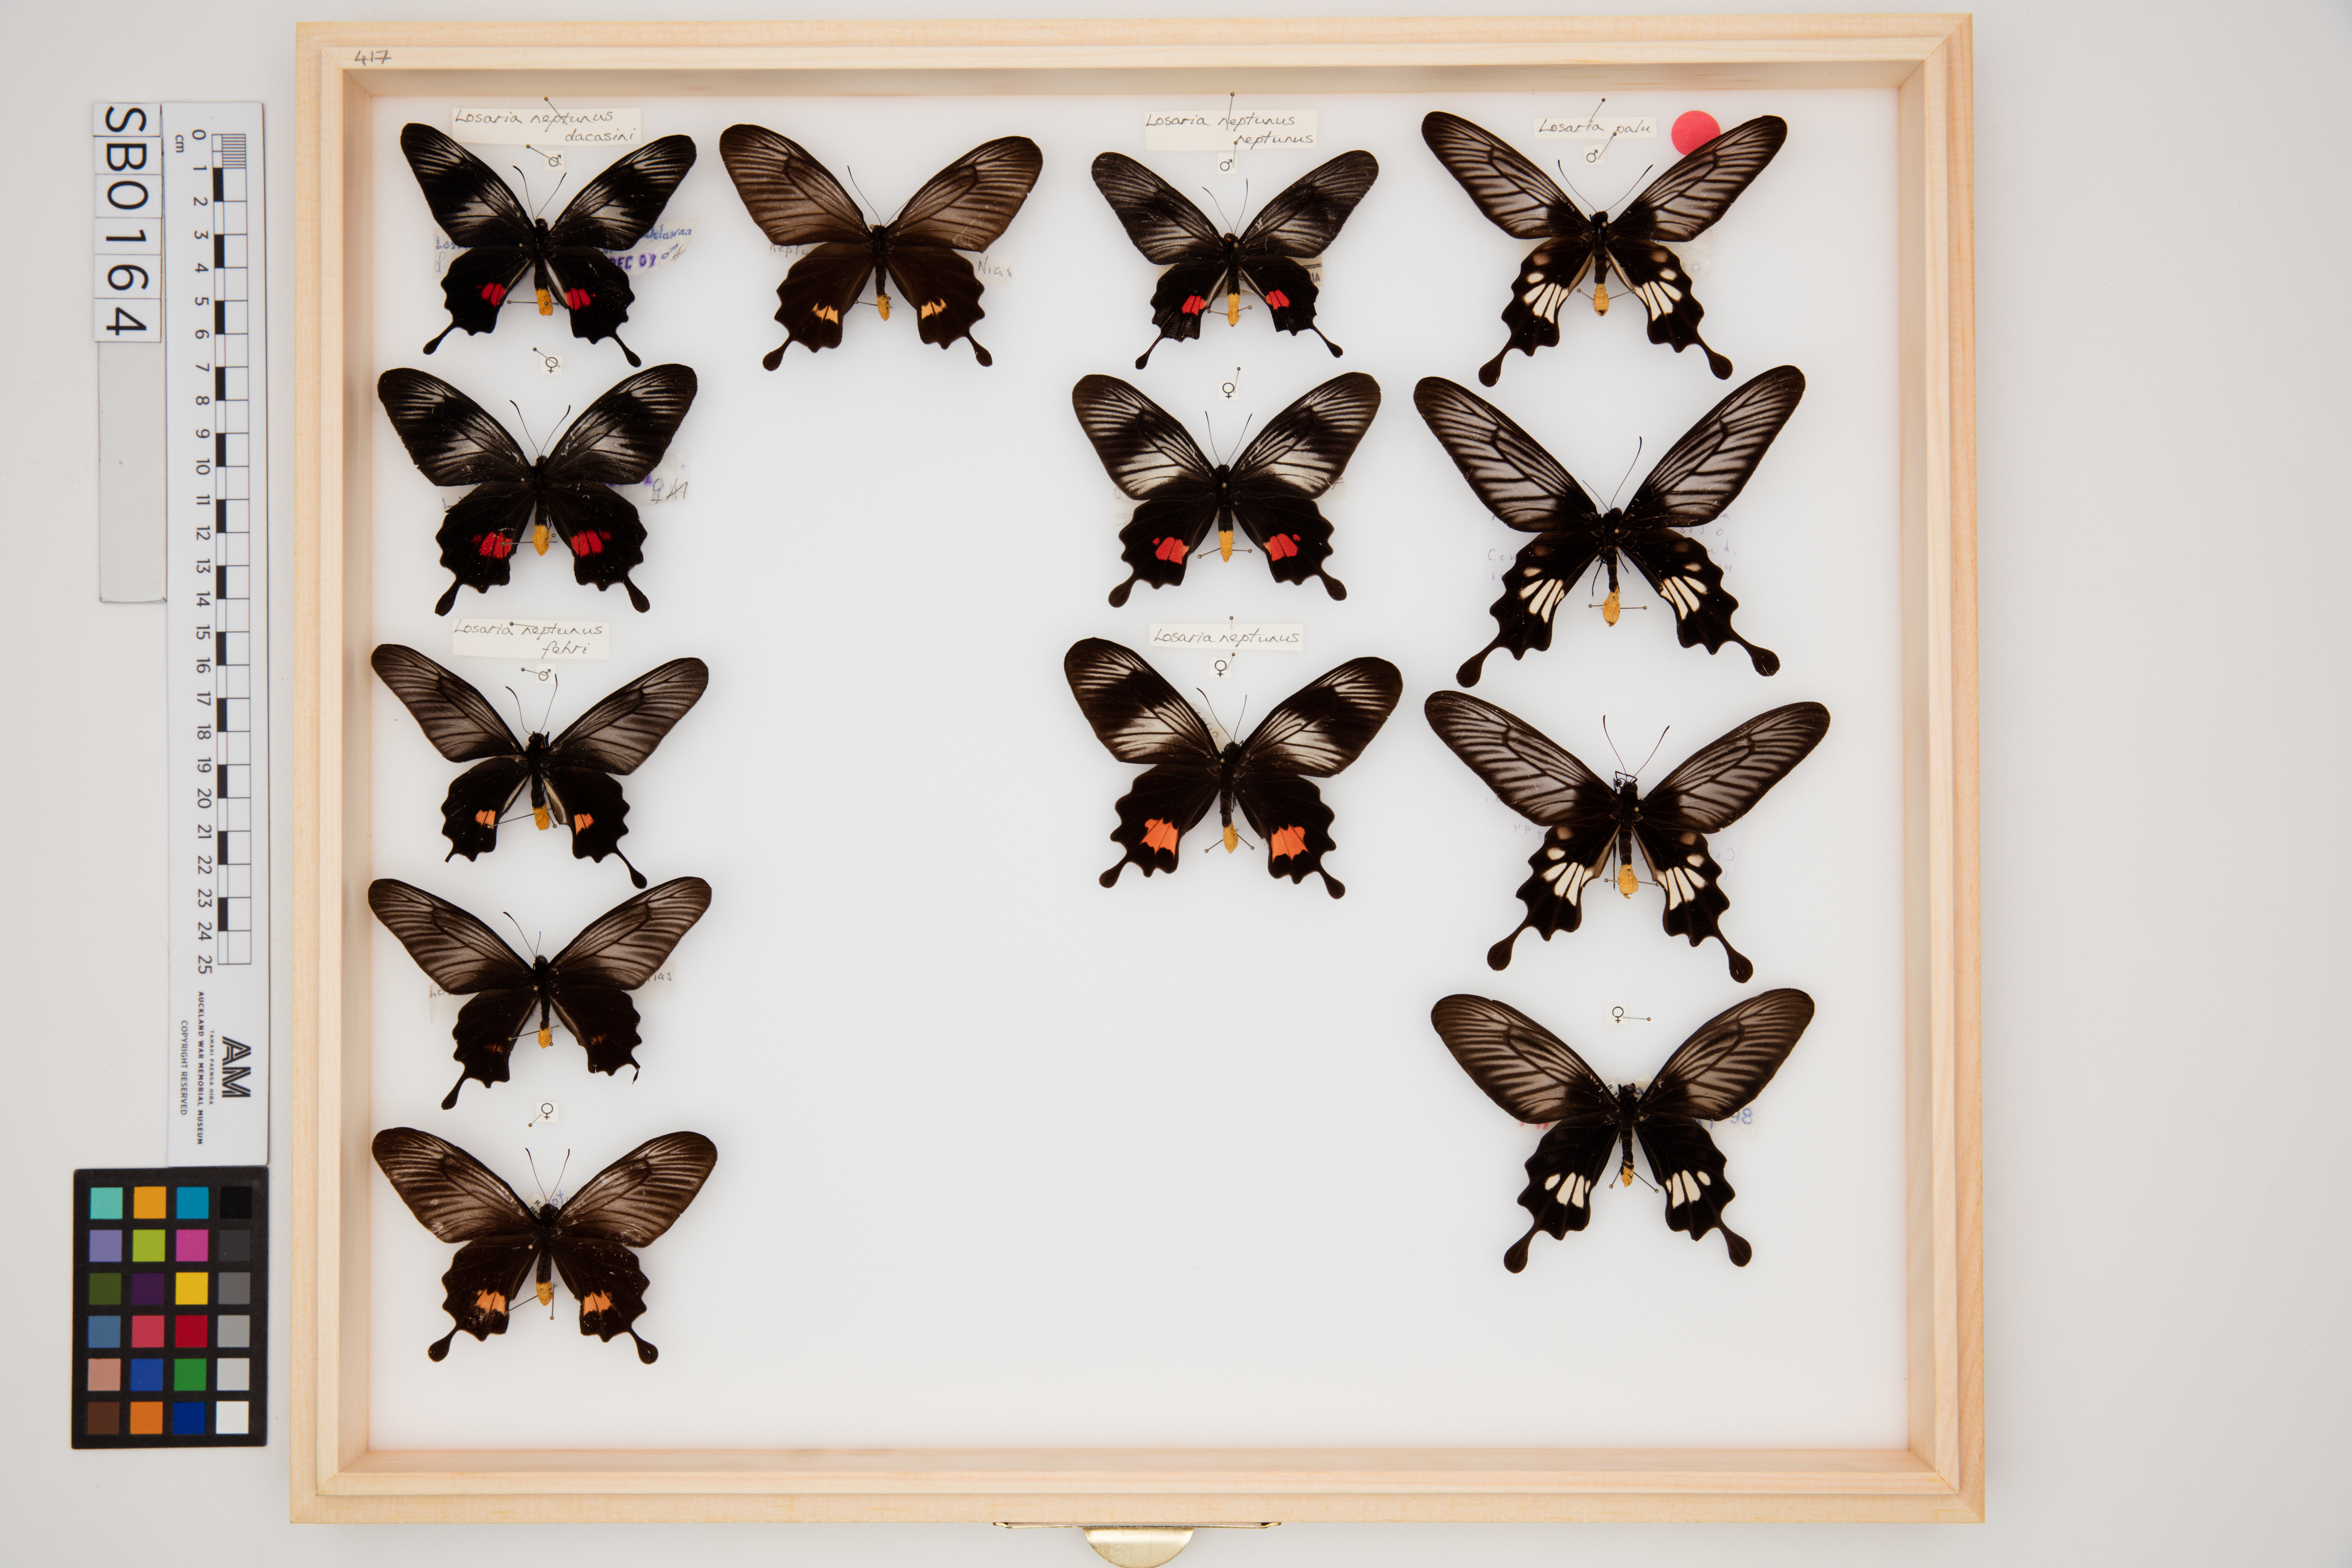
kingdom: Animalia
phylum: Arthropoda
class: Insecta
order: Lepidoptera
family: Papilionidae
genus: Losaria
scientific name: Losaria neptunus
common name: Yellow-bodied clubtail
